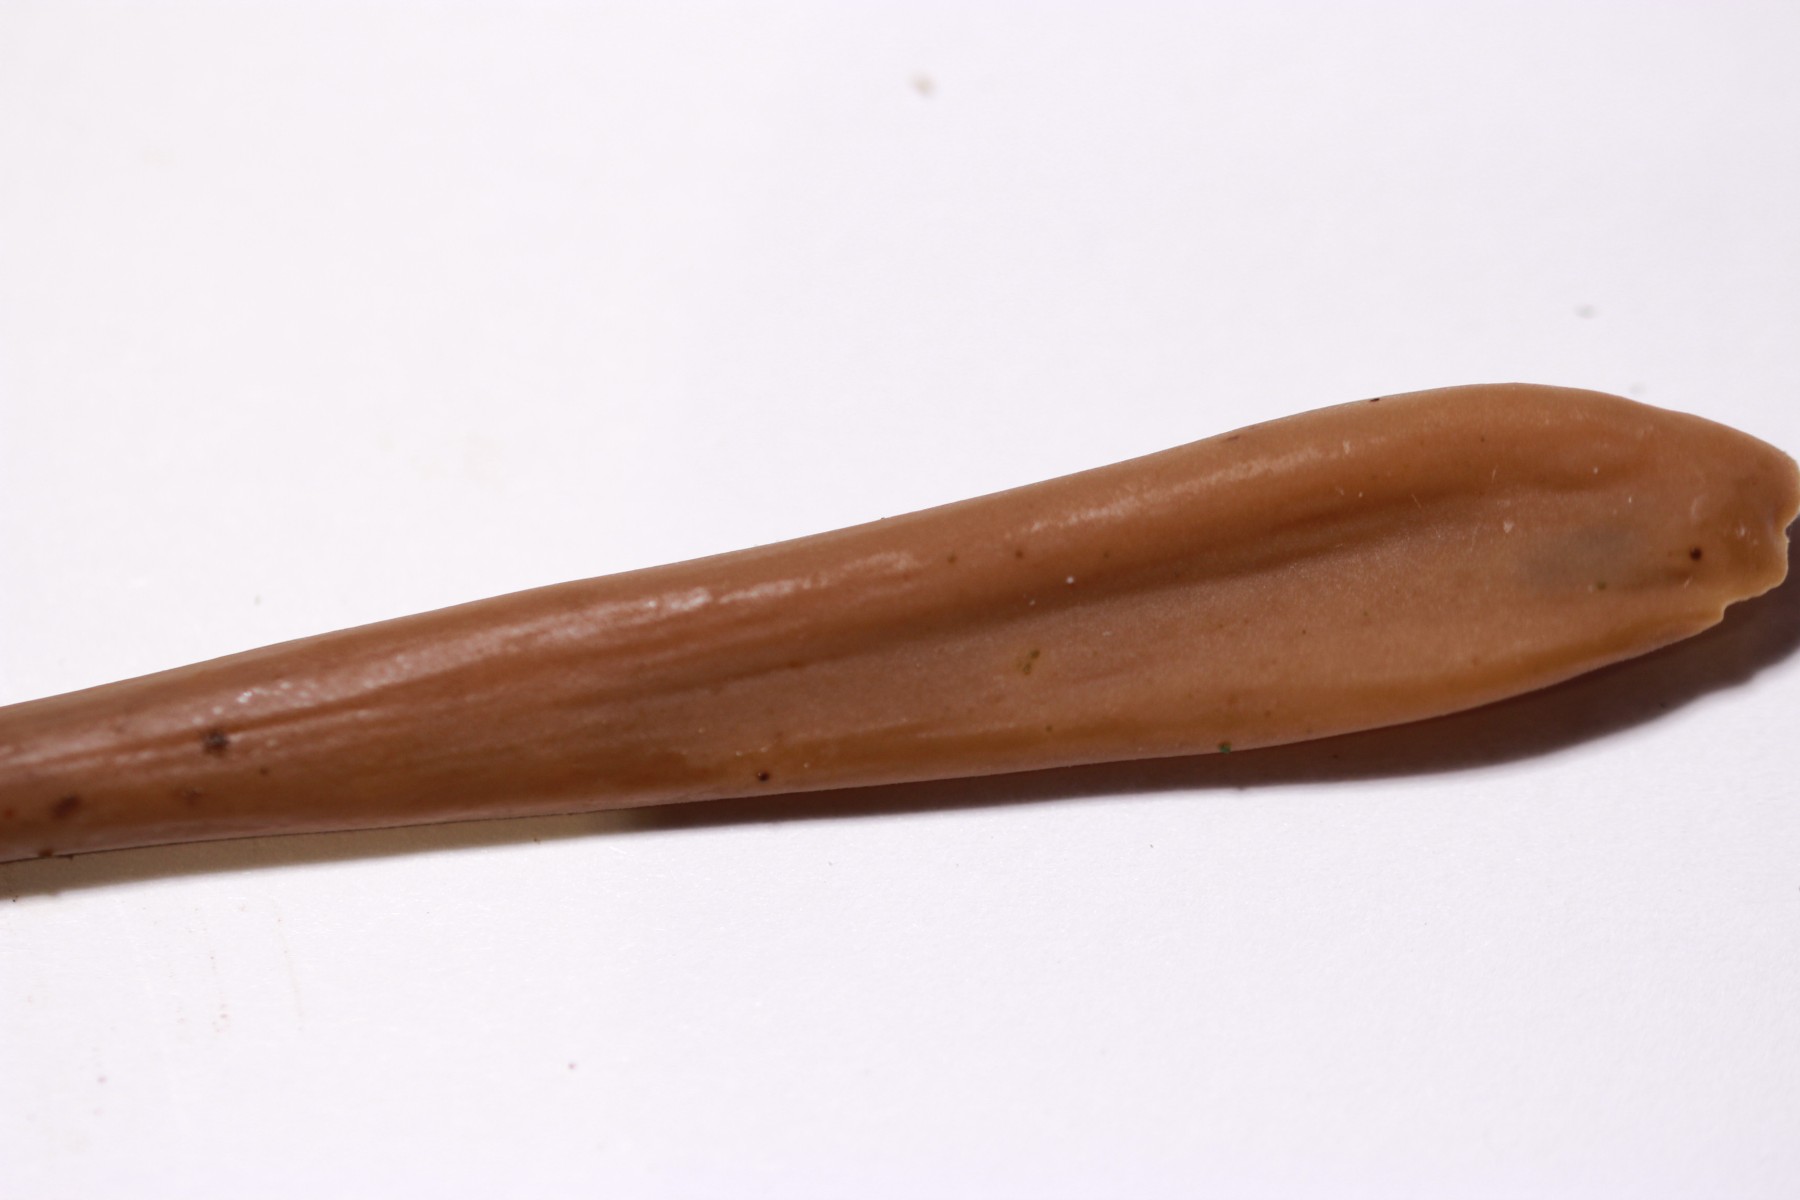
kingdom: Fungi
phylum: Basidiomycota
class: Agaricomycetes
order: Agaricales
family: Typhulaceae
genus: Typhula
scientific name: Typhula fistulosa
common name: pibet rørkølle
